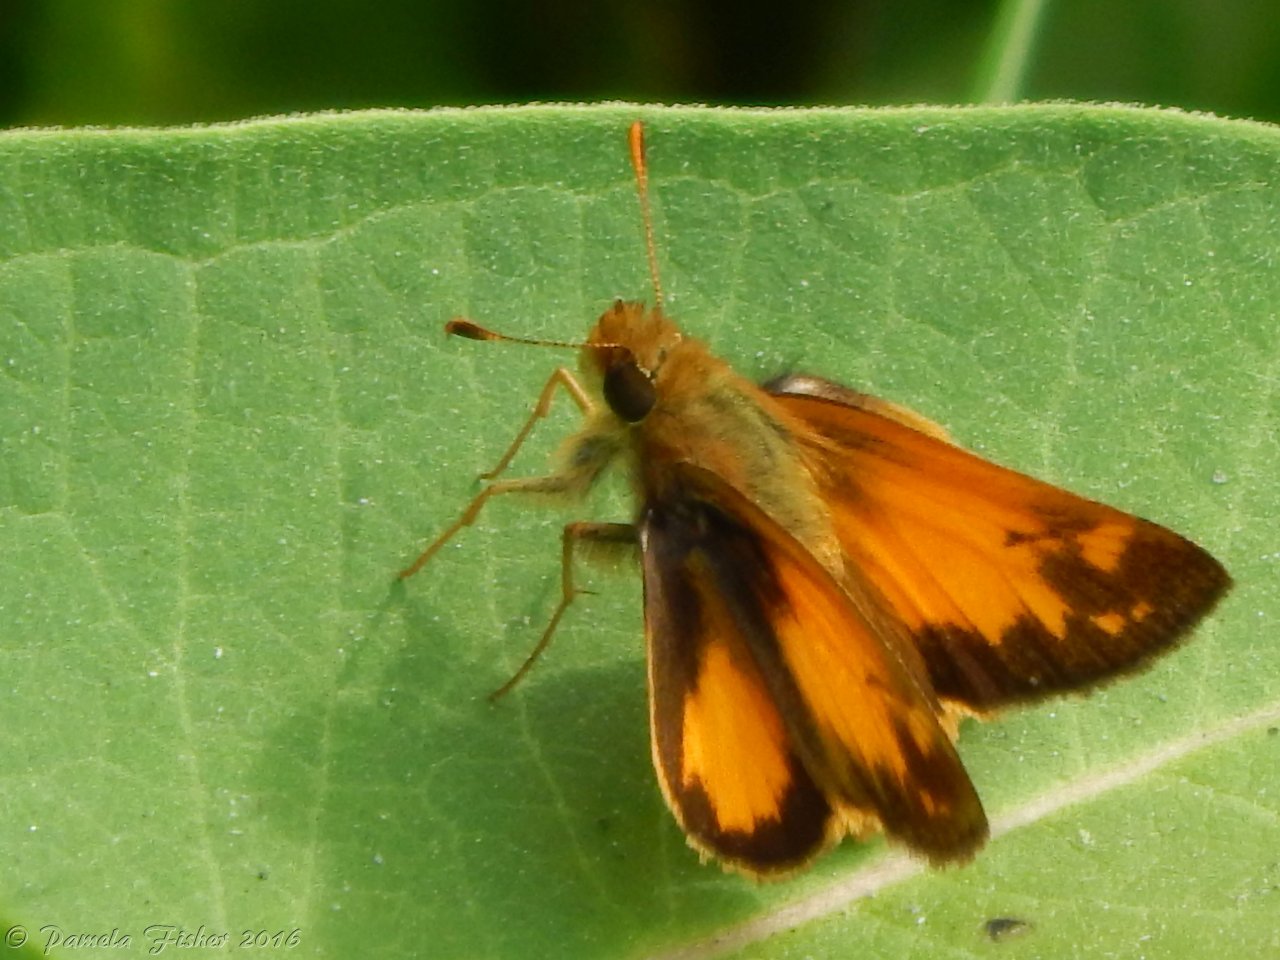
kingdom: Animalia
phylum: Arthropoda
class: Insecta
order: Lepidoptera
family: Hesperiidae
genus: Lon
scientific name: Lon zabulon
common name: Zabulon Skipper
